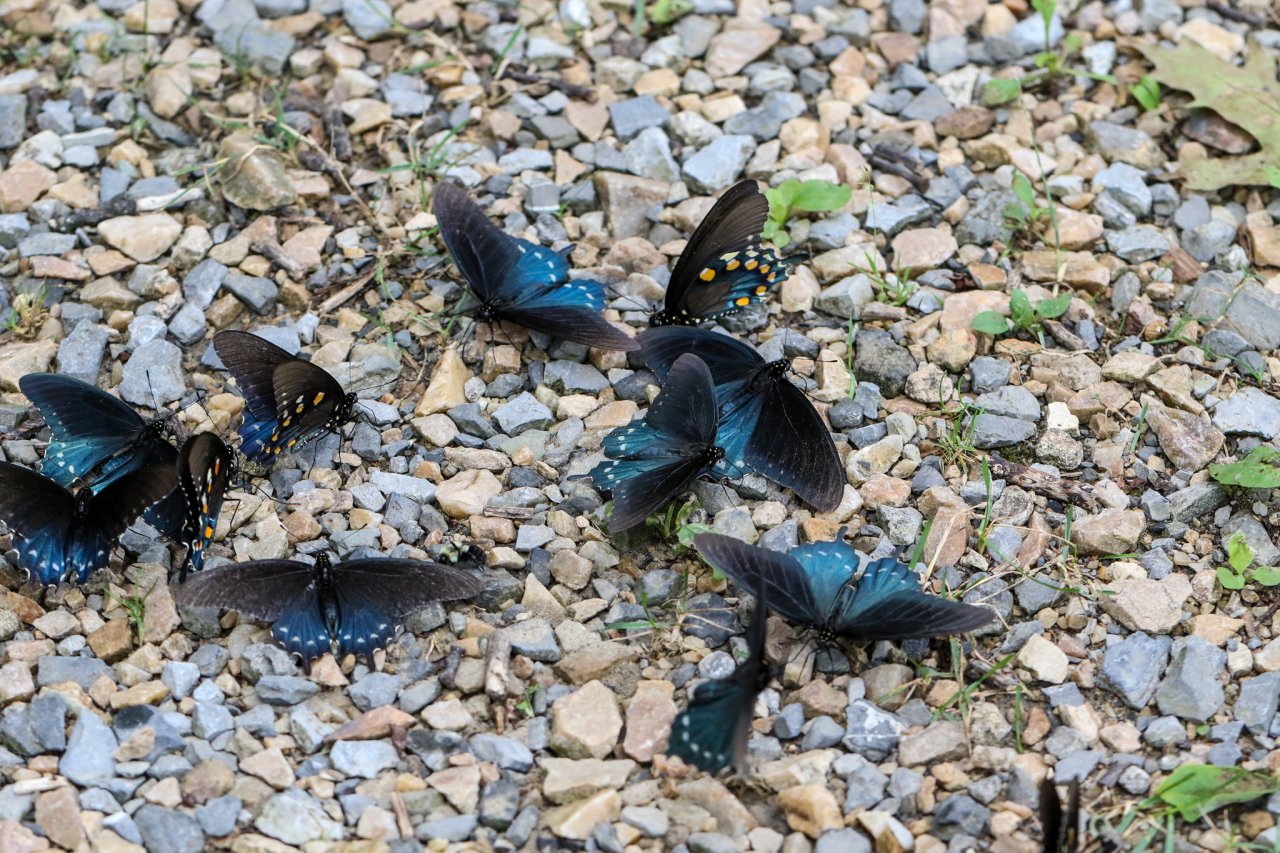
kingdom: Animalia
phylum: Arthropoda
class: Insecta
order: Lepidoptera
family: Papilionidae
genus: Battus
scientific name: Battus philenor
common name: Pipevine Swallowtail
